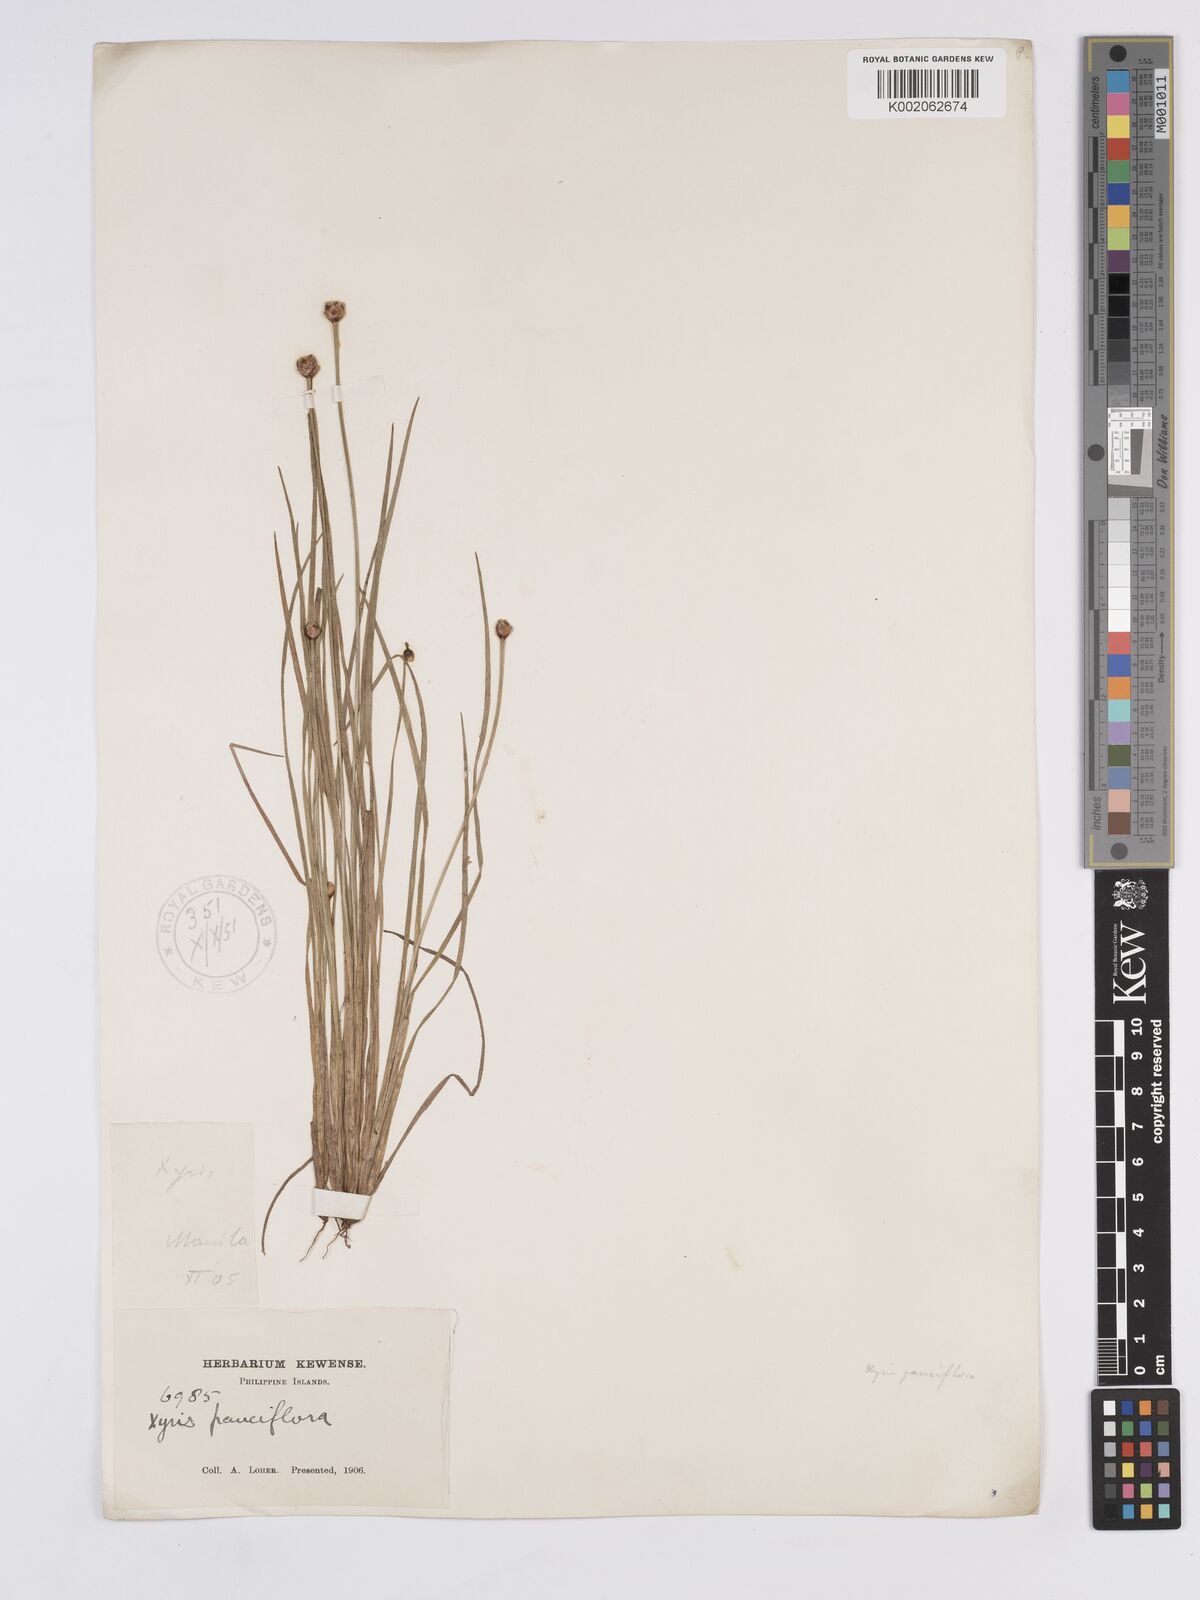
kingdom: Plantae
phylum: Tracheophyta
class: Liliopsida
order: Poales
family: Xyridaceae
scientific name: Xyridaceae
